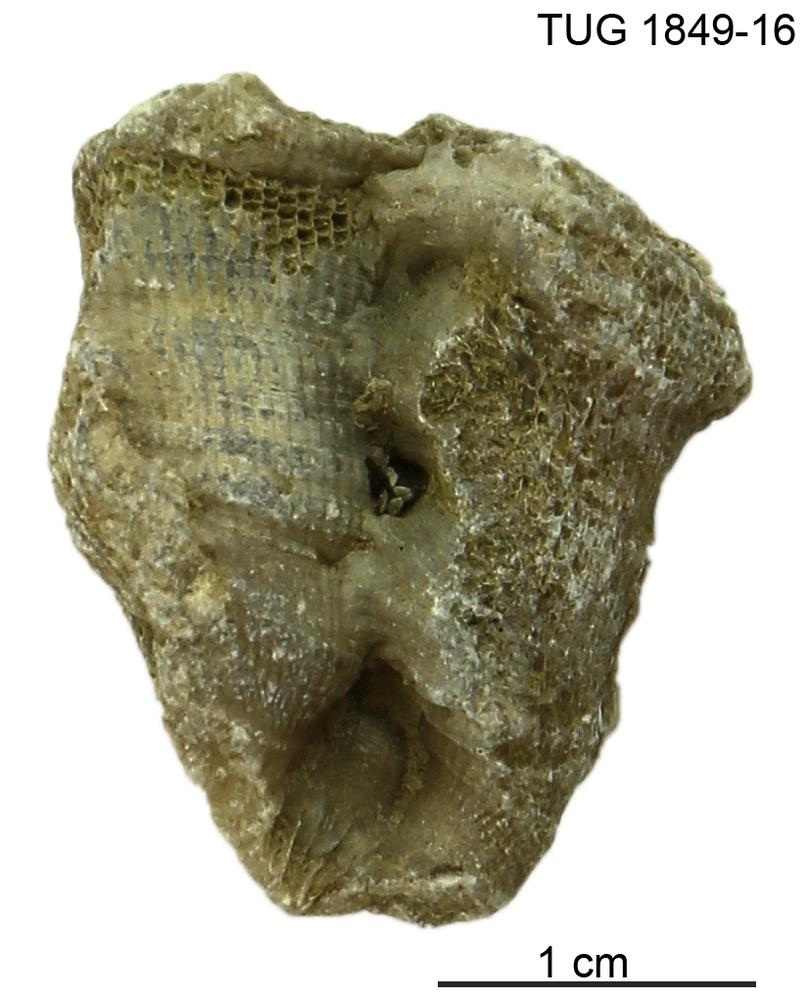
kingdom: Animalia
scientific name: Animalia
